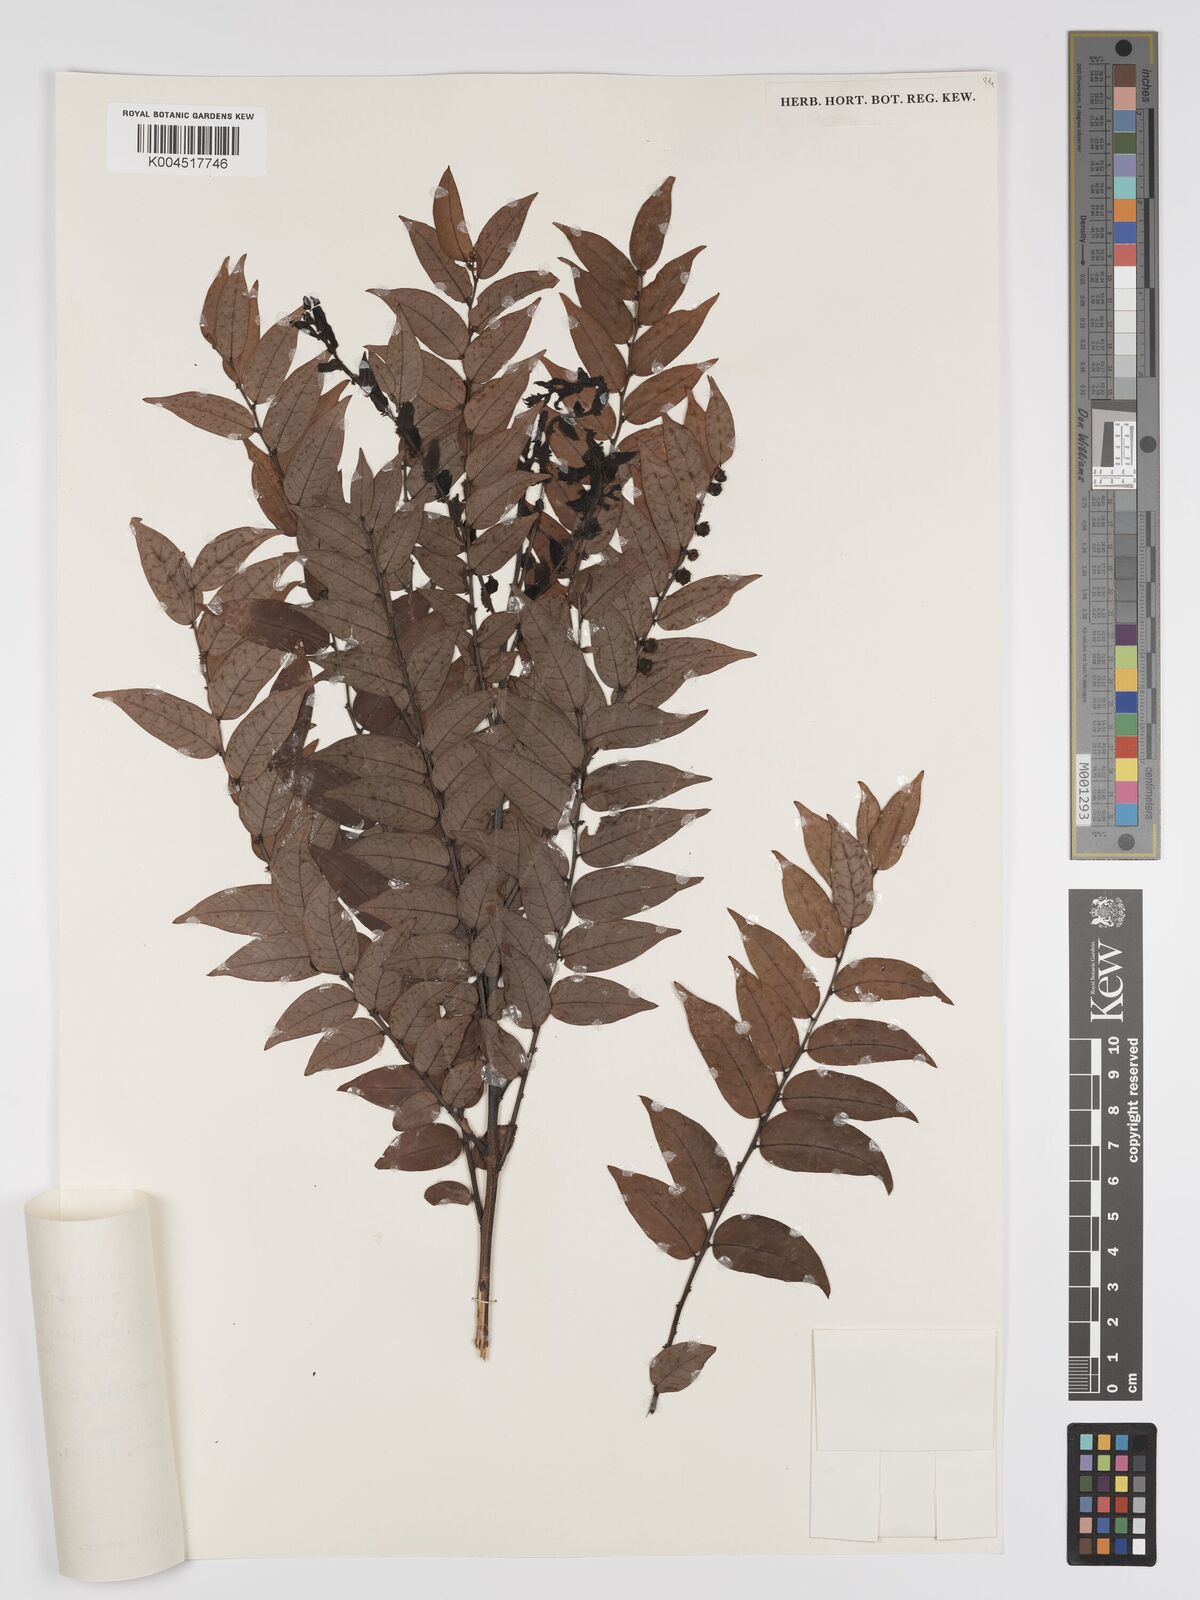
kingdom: Plantae
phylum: Tracheophyta
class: Magnoliopsida
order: Malpighiales
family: Phyllanthaceae
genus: Phyllanthus
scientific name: Phyllanthus
